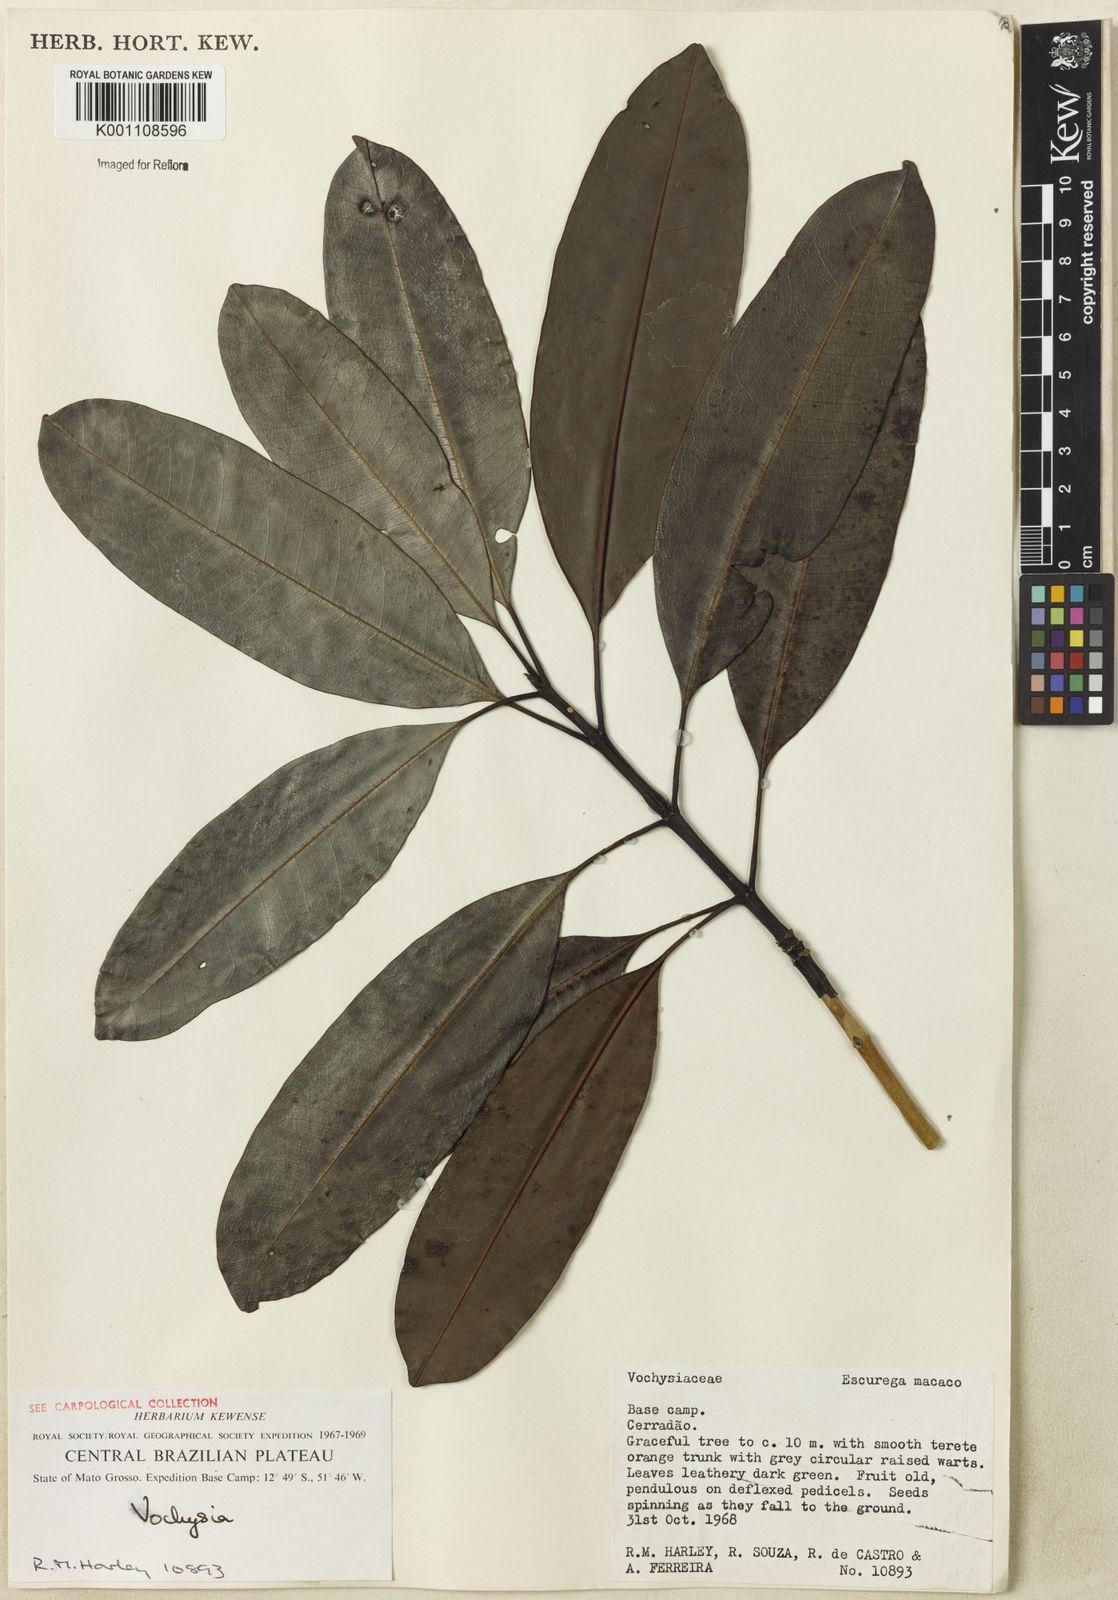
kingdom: Plantae
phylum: Tracheophyta
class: Magnoliopsida
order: Myrtales
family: Vochysiaceae
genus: Vochysia
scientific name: Vochysia
